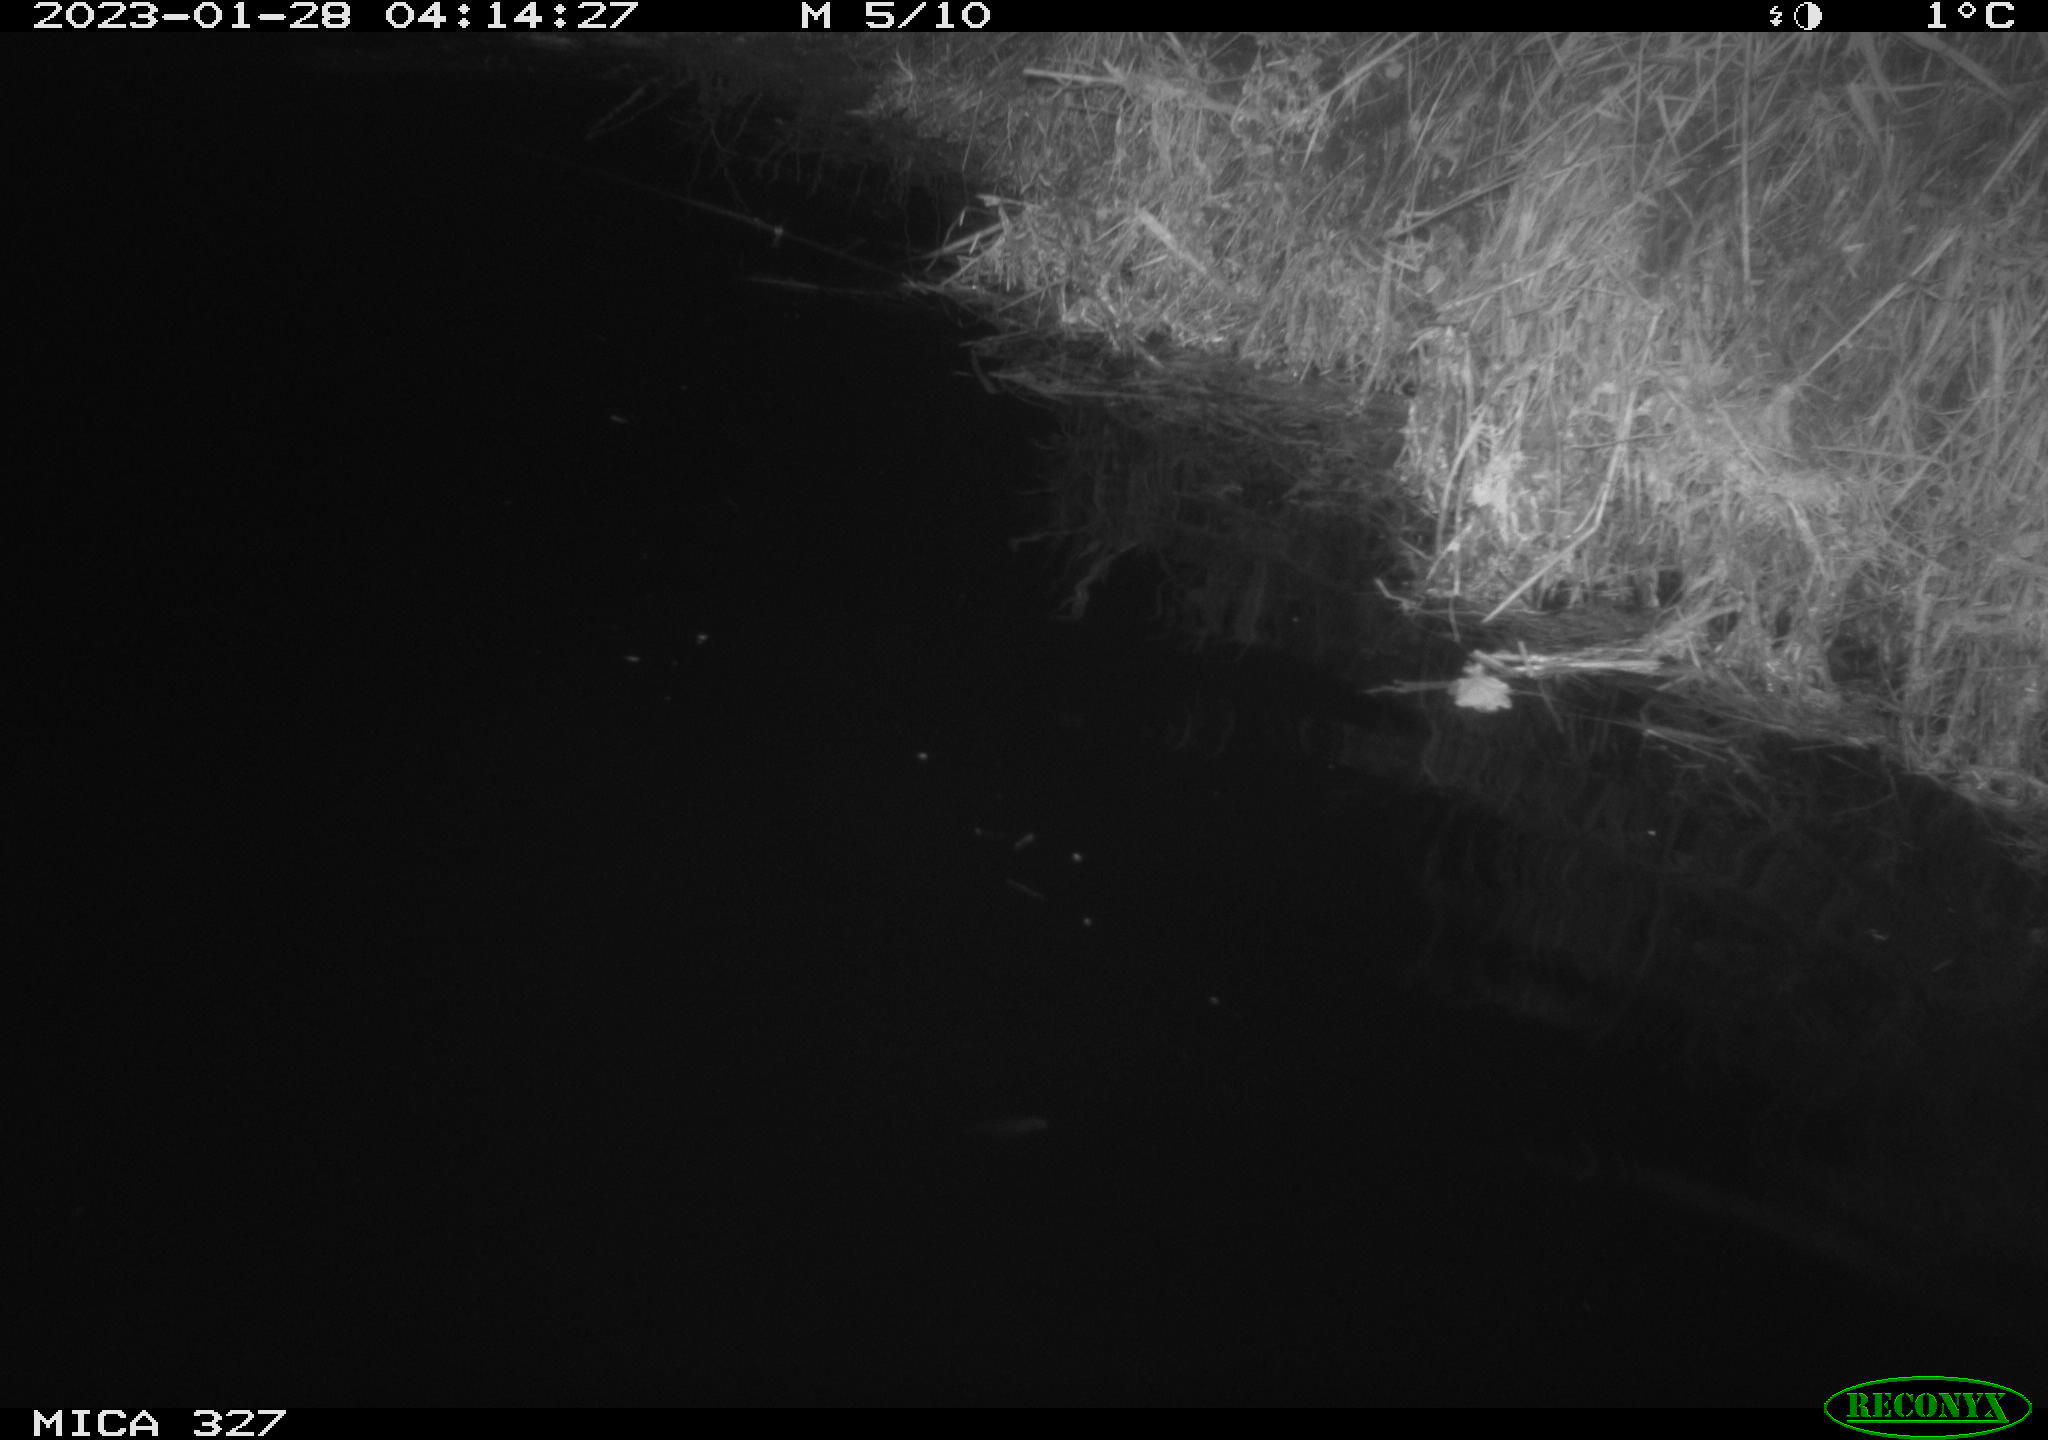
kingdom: Animalia
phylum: Chordata
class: Mammalia
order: Rodentia
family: Cricetidae
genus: Ondatra
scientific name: Ondatra zibethicus
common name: Muskrat
